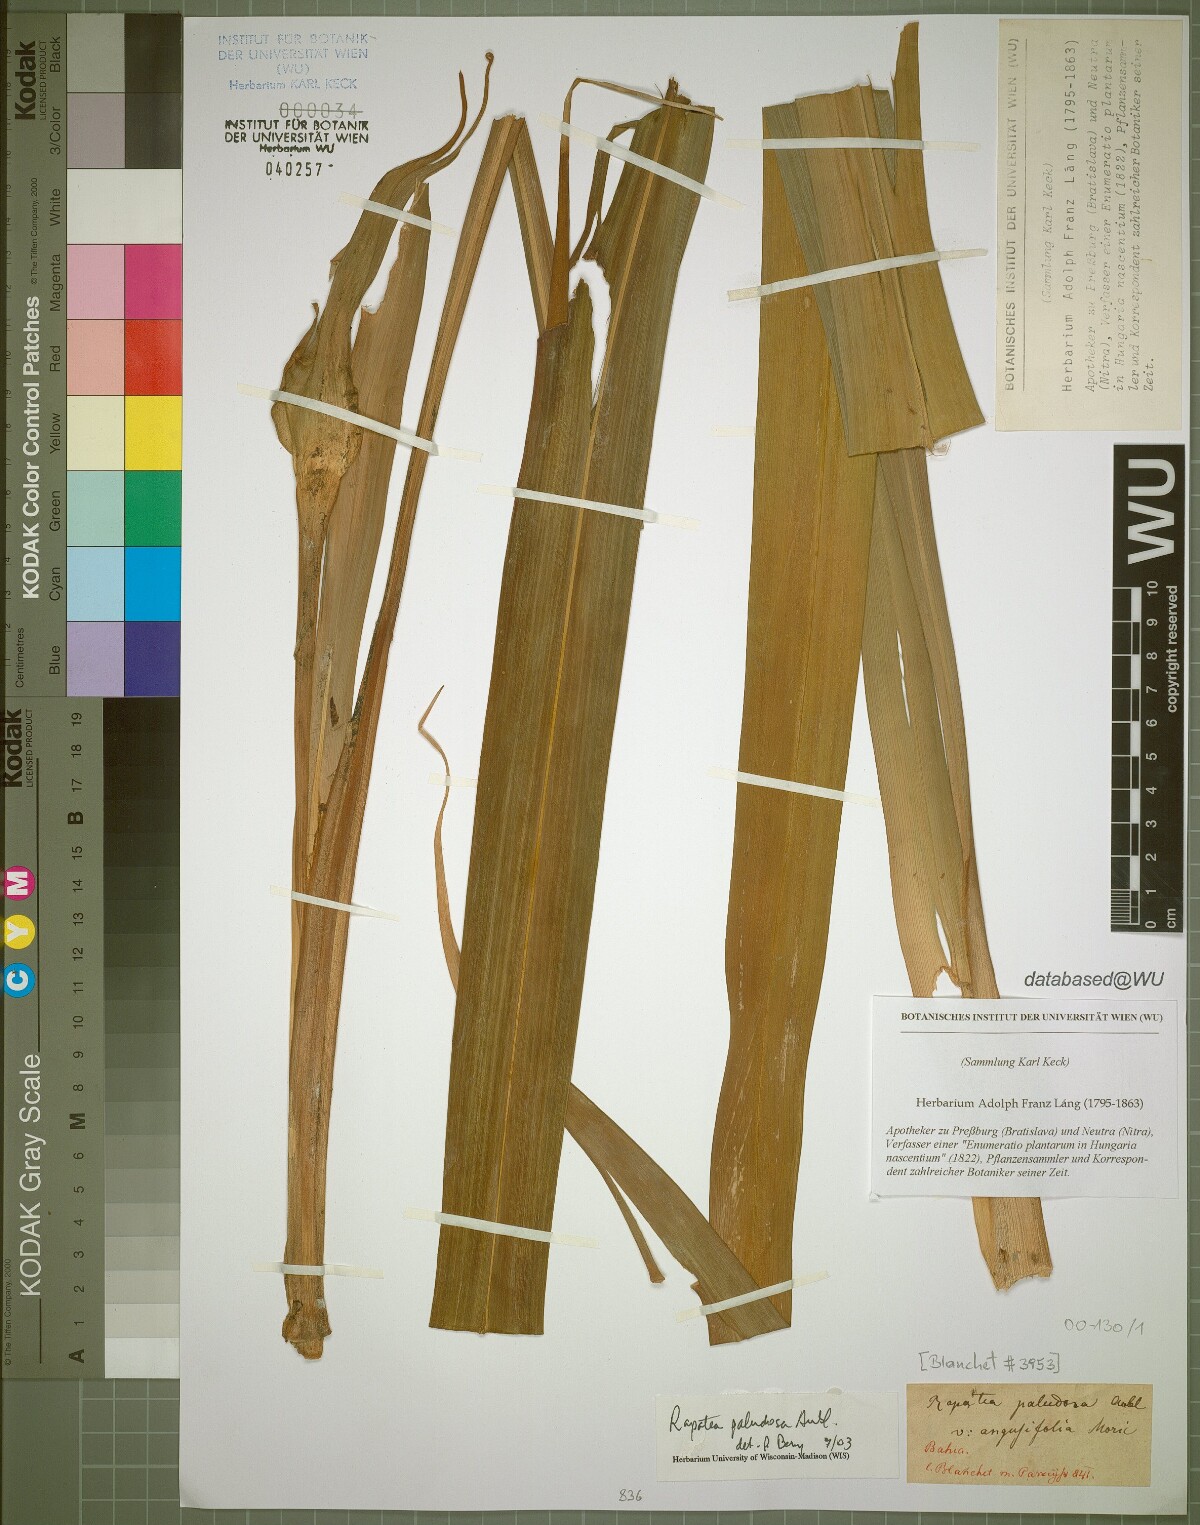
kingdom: Plantae
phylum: Tracheophyta
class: Liliopsida
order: Poales
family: Rapateaceae
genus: Rapatea
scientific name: Rapatea paludosa
